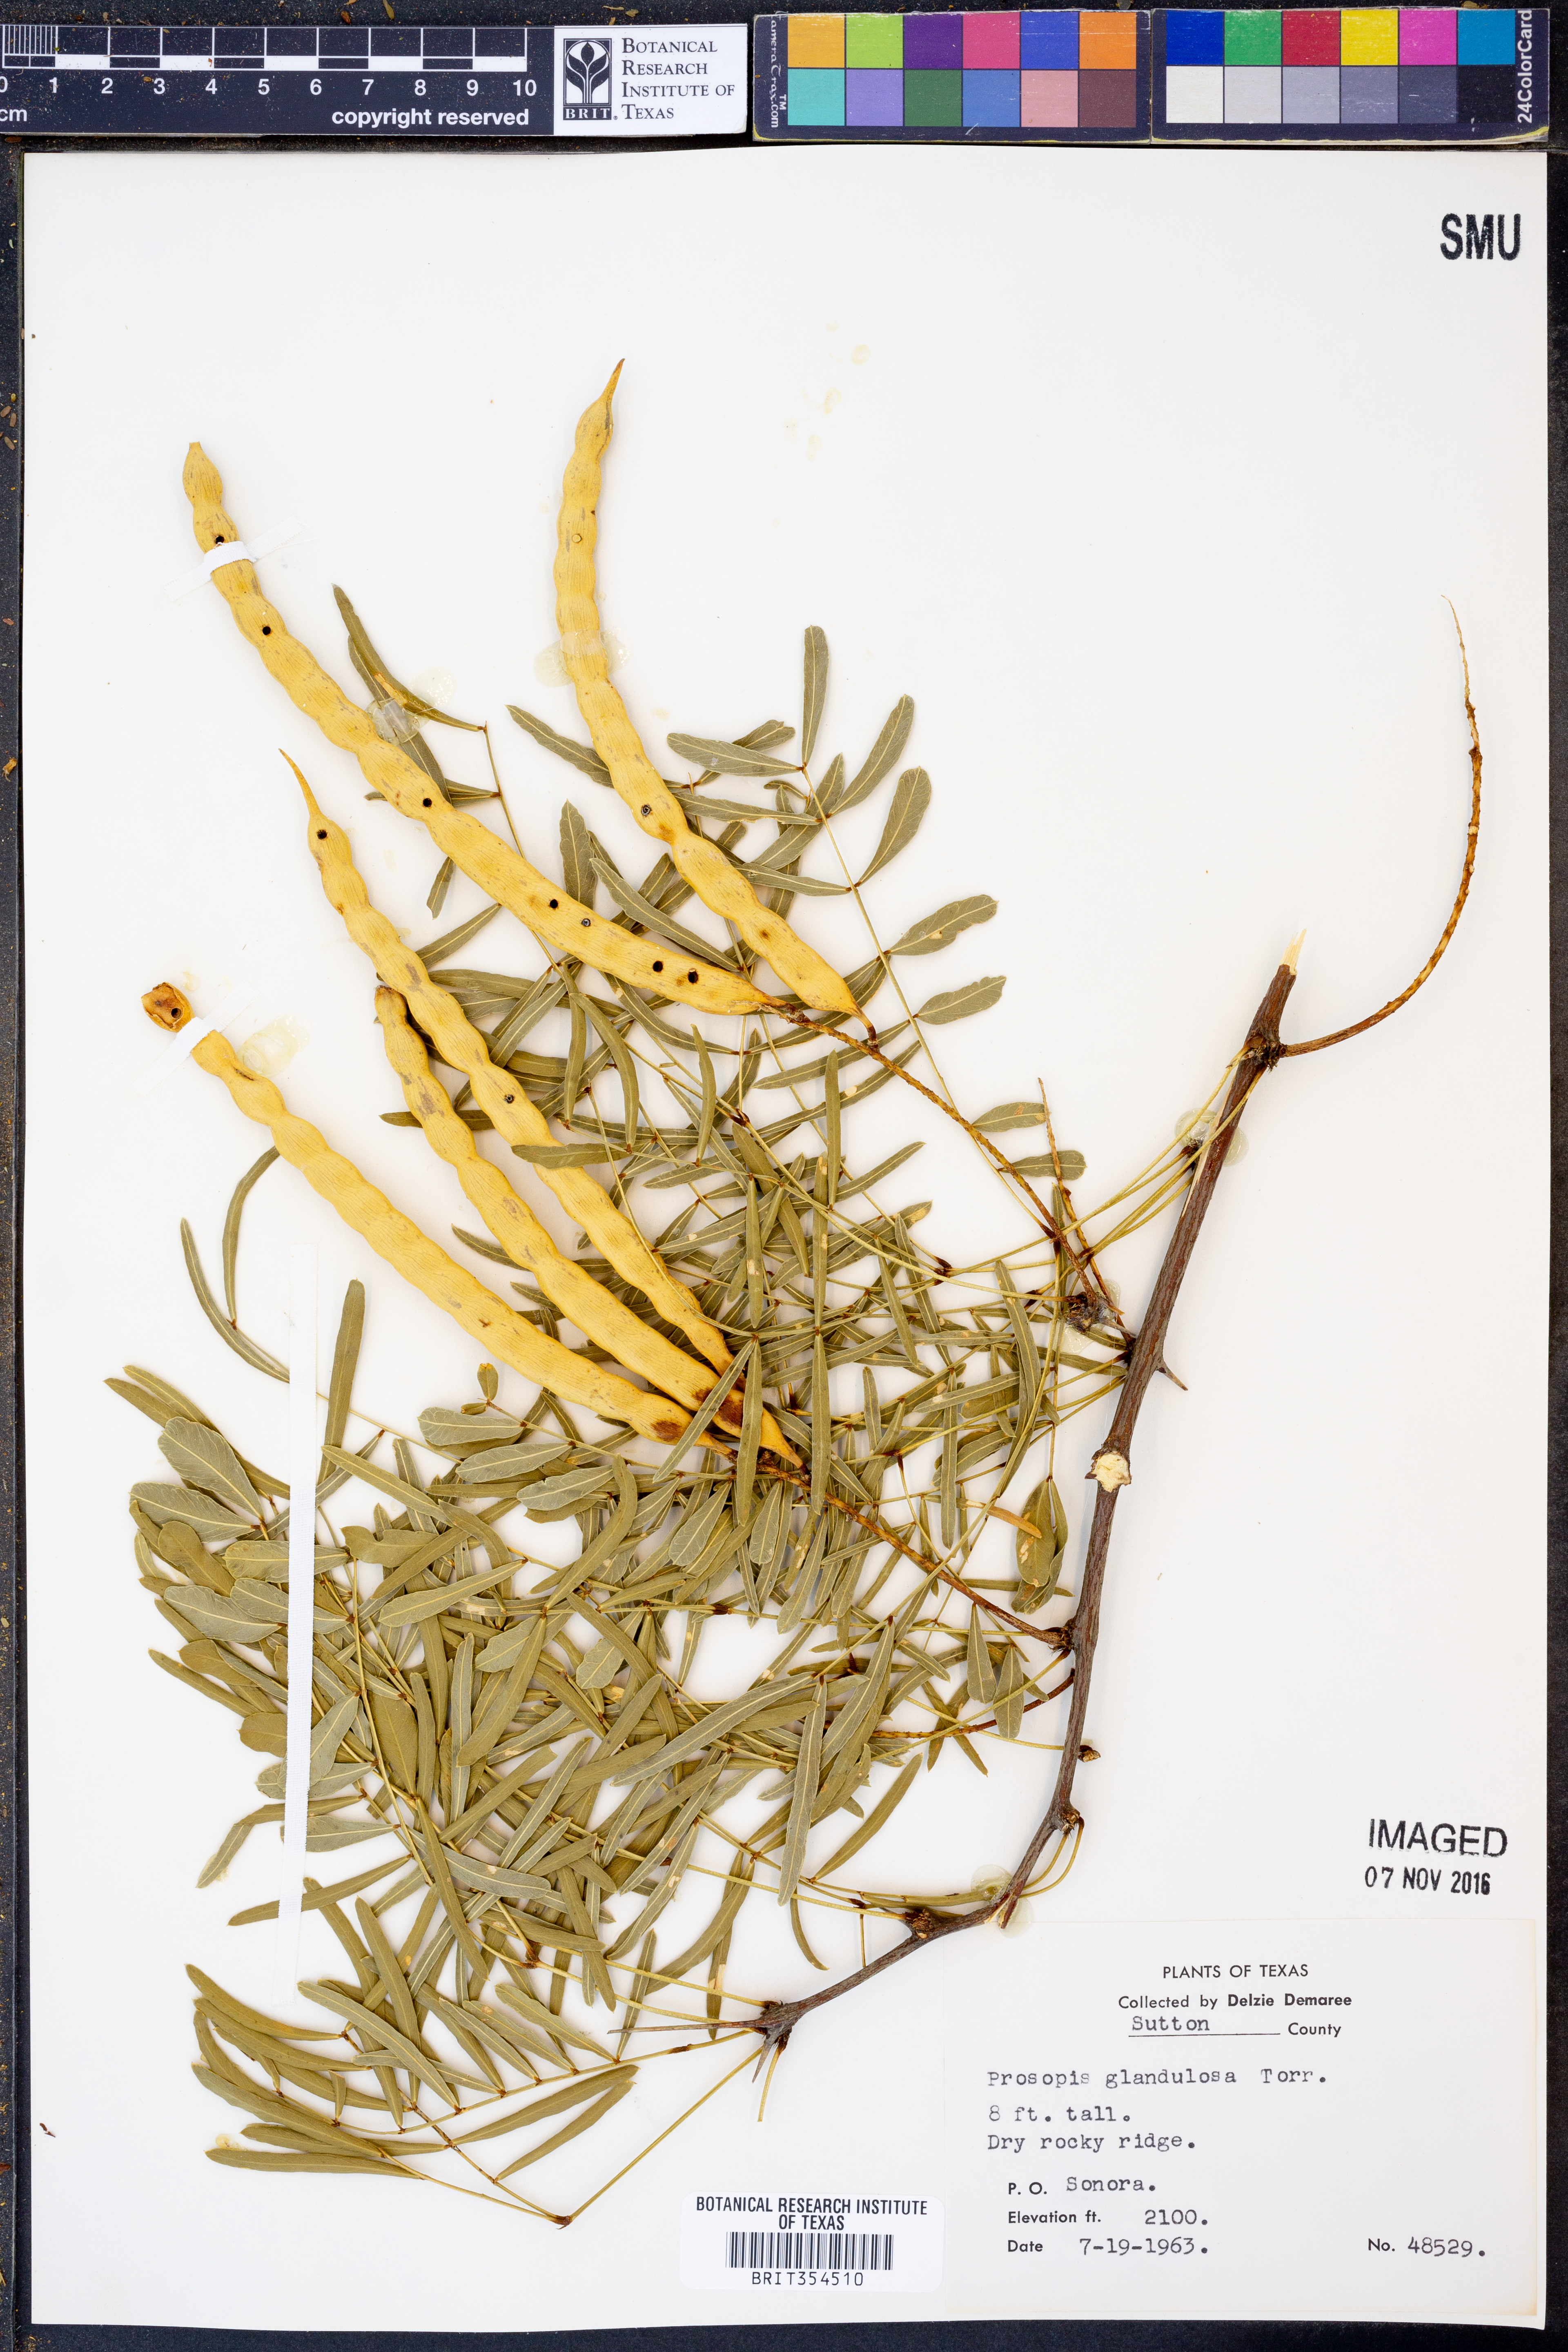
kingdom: Plantae
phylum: Tracheophyta
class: Magnoliopsida
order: Fabales
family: Fabaceae
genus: Prosopis
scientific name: Prosopis glandulosa
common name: Honey mesquite
